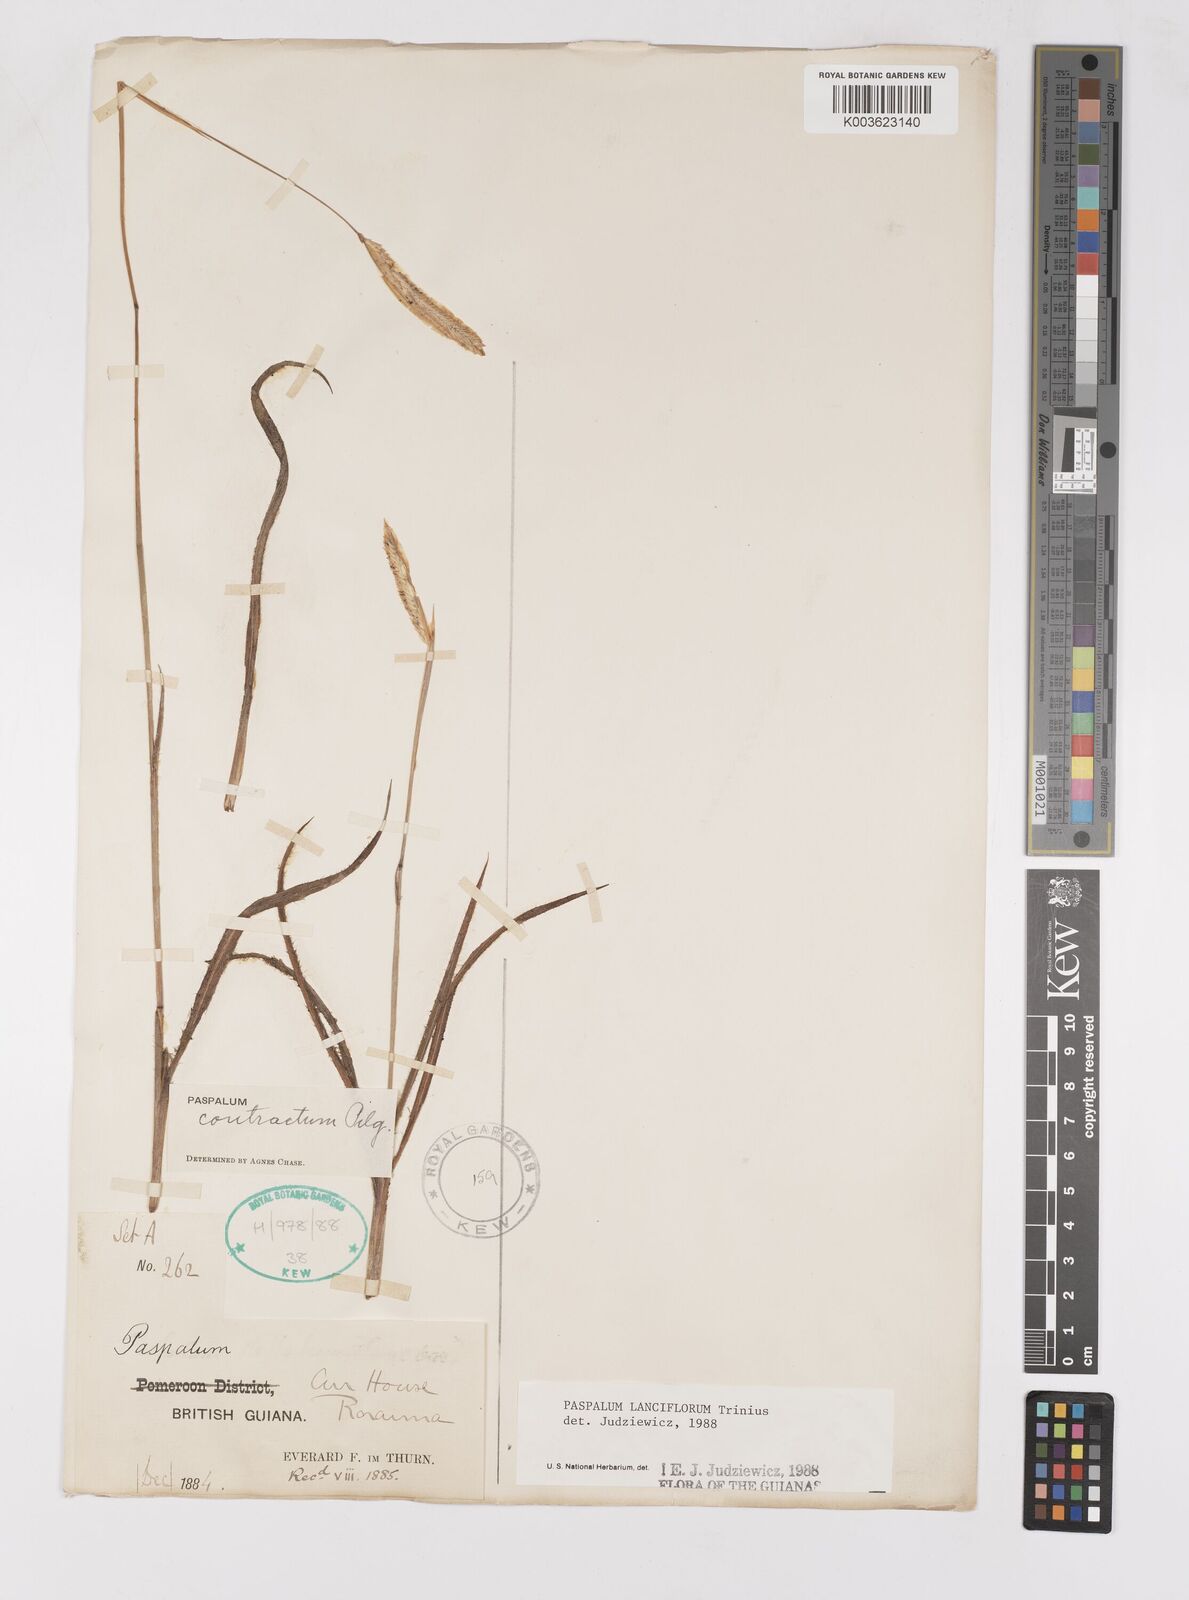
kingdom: Plantae
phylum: Tracheophyta
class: Liliopsida
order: Poales
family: Poaceae
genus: Paspalum
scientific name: Paspalum lanciflorum
